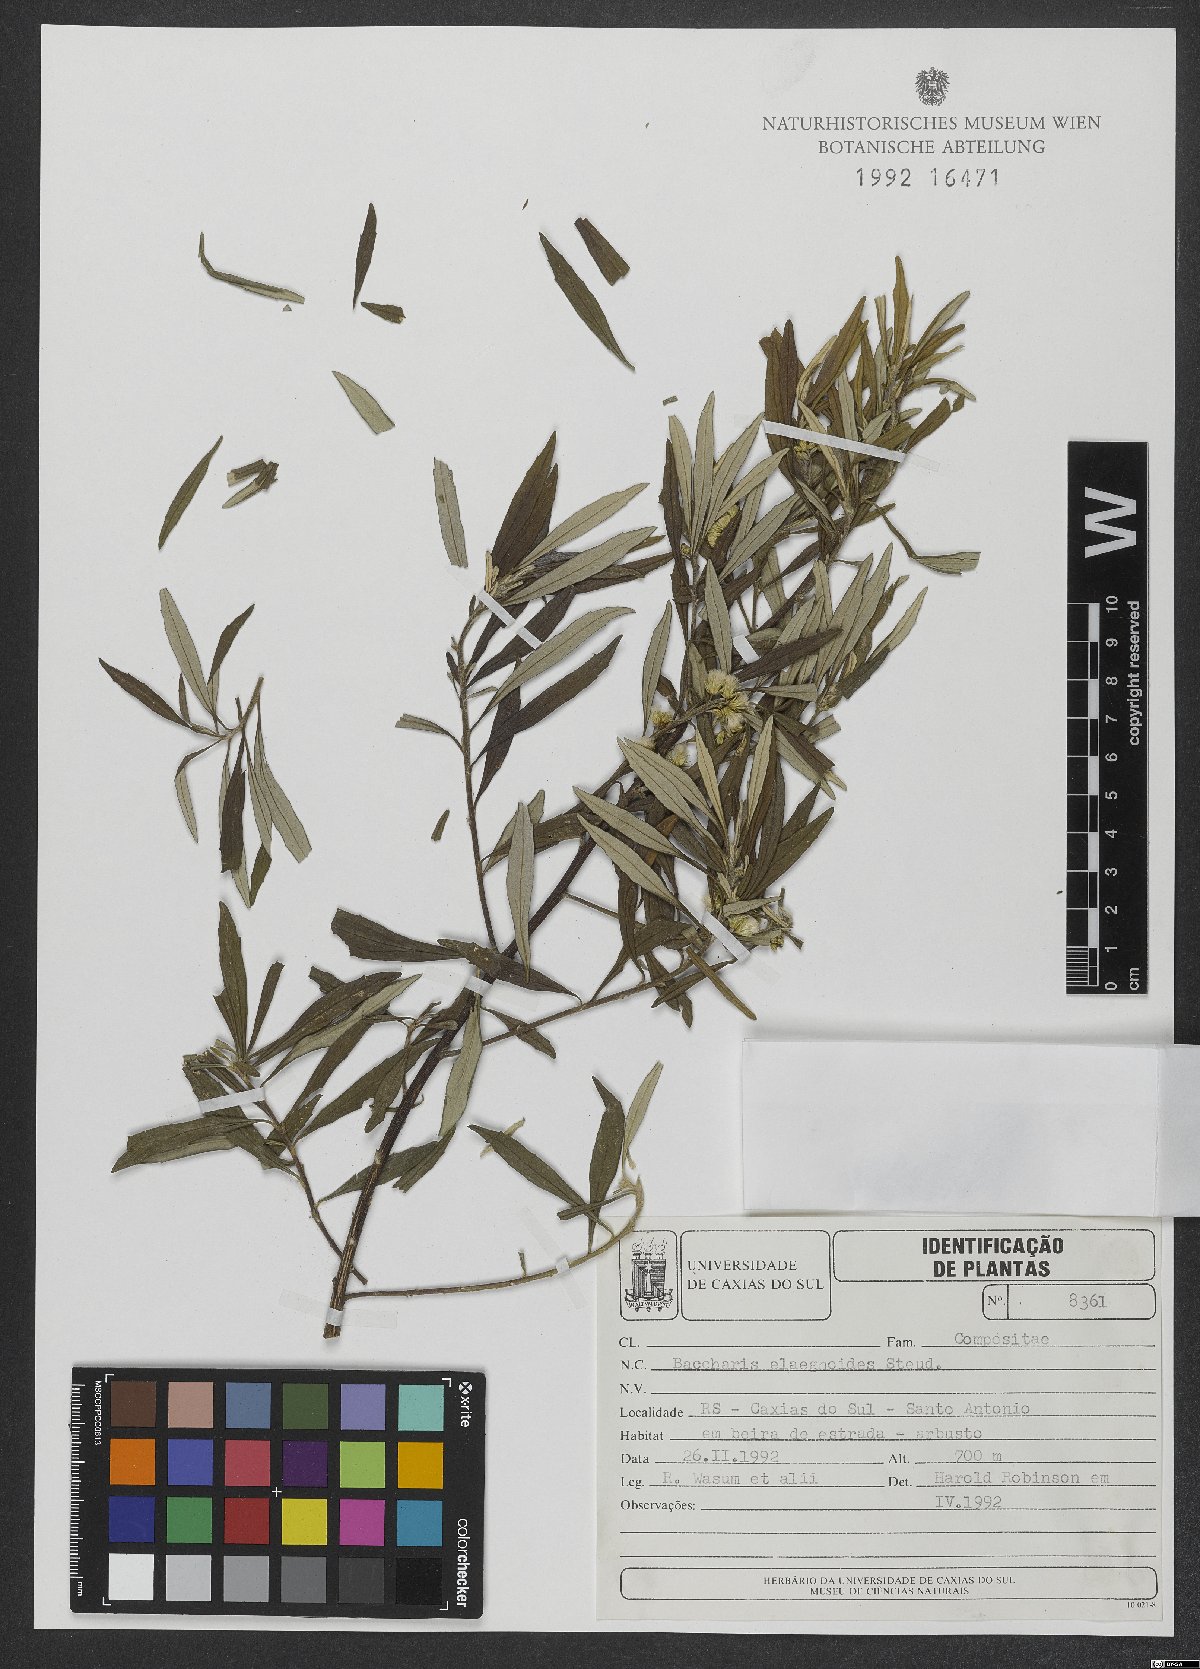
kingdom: Plantae
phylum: Tracheophyta
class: Magnoliopsida
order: Asterales
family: Asteraceae
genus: Baccharis
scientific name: Baccharis montana
